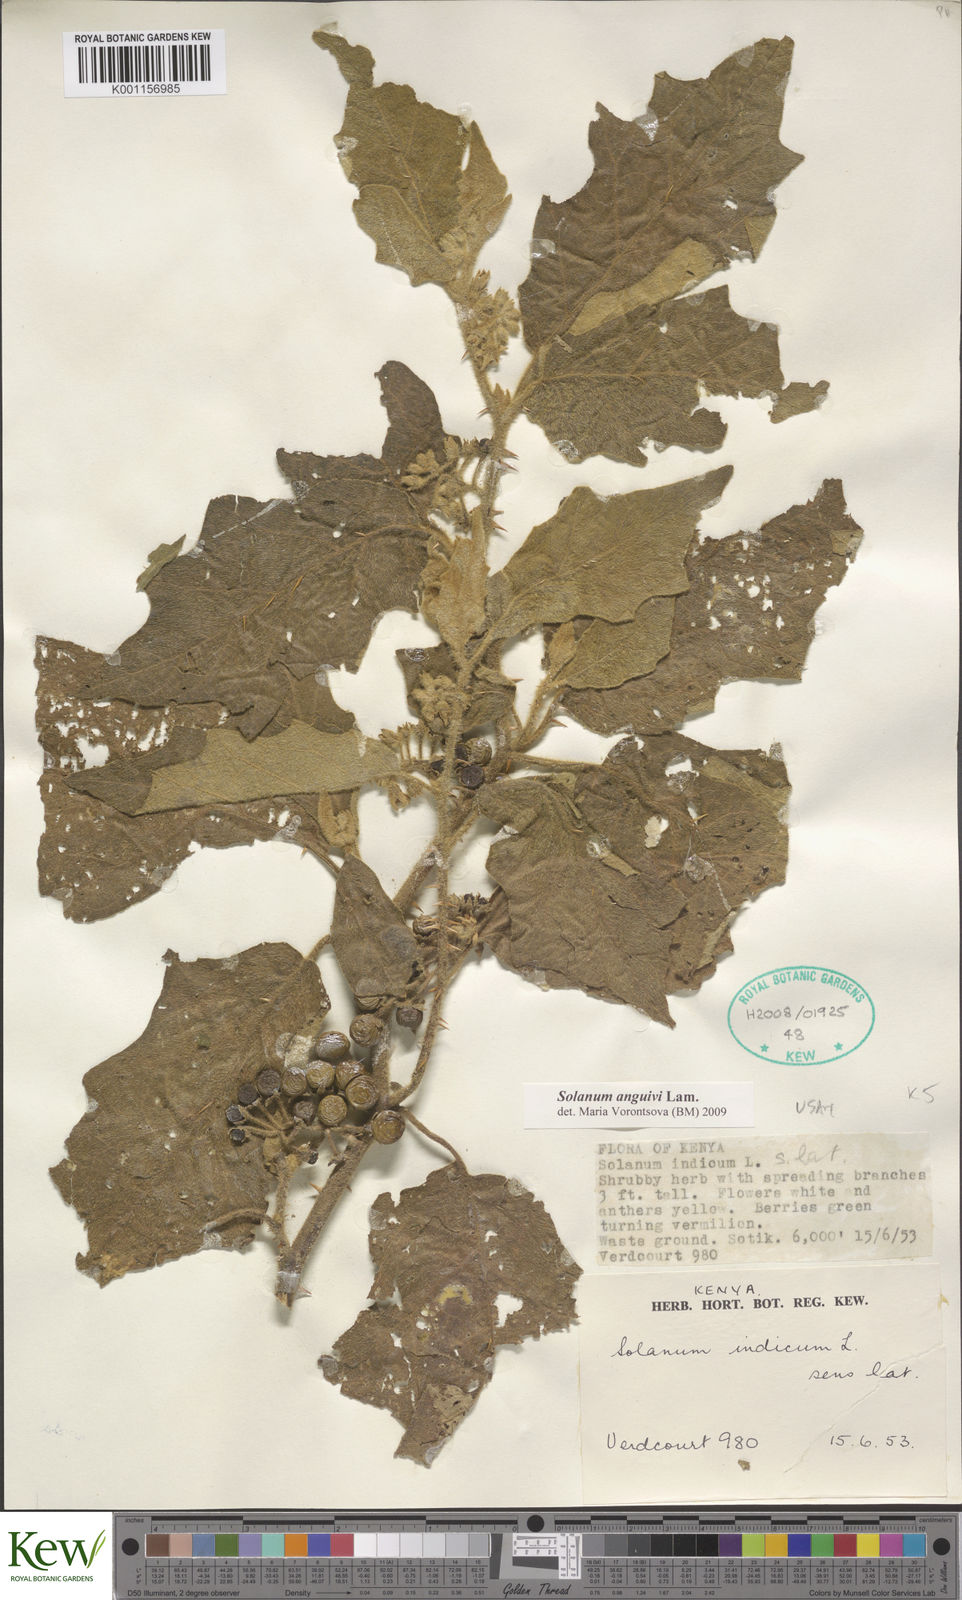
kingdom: Plantae
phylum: Tracheophyta
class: Magnoliopsida
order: Solanales
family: Solanaceae
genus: Solanum
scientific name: Solanum anguivi
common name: Forest bitterberry
